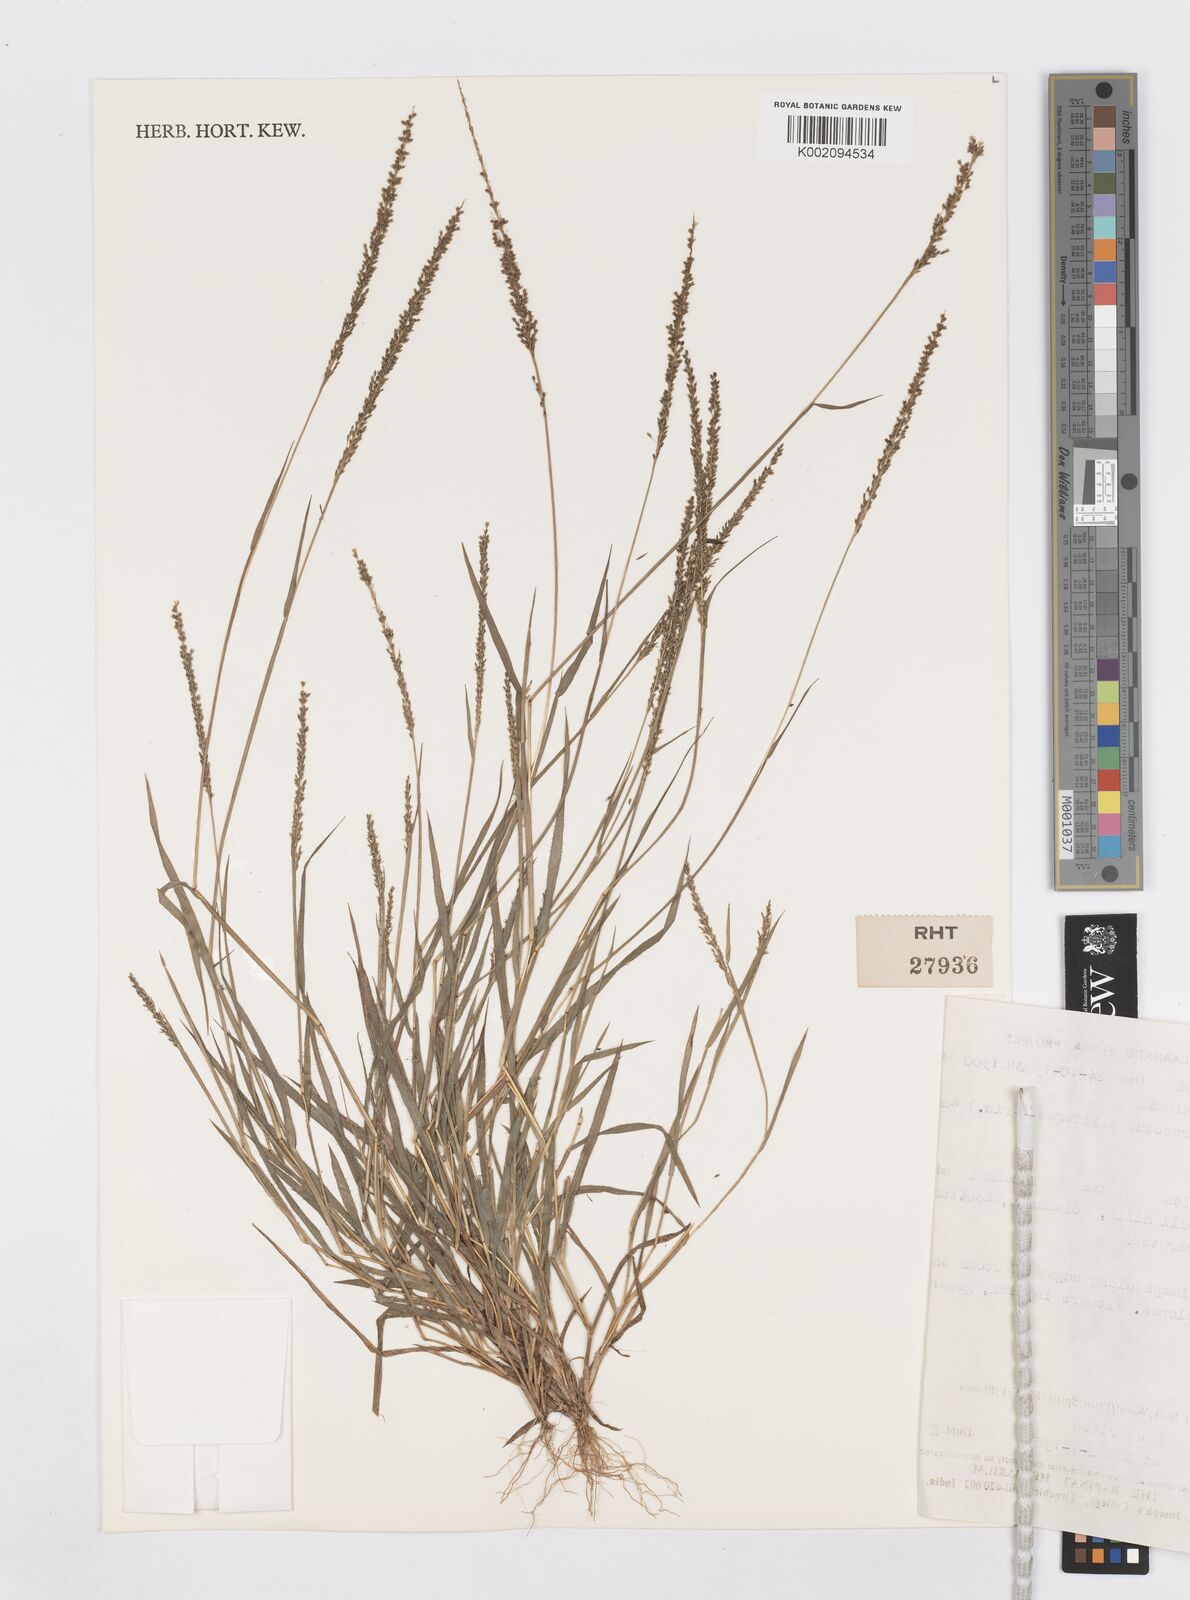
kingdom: Plantae
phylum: Tracheophyta
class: Liliopsida
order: Poales
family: Poaceae
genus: Sporobolus
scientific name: Sporobolus pilifer
